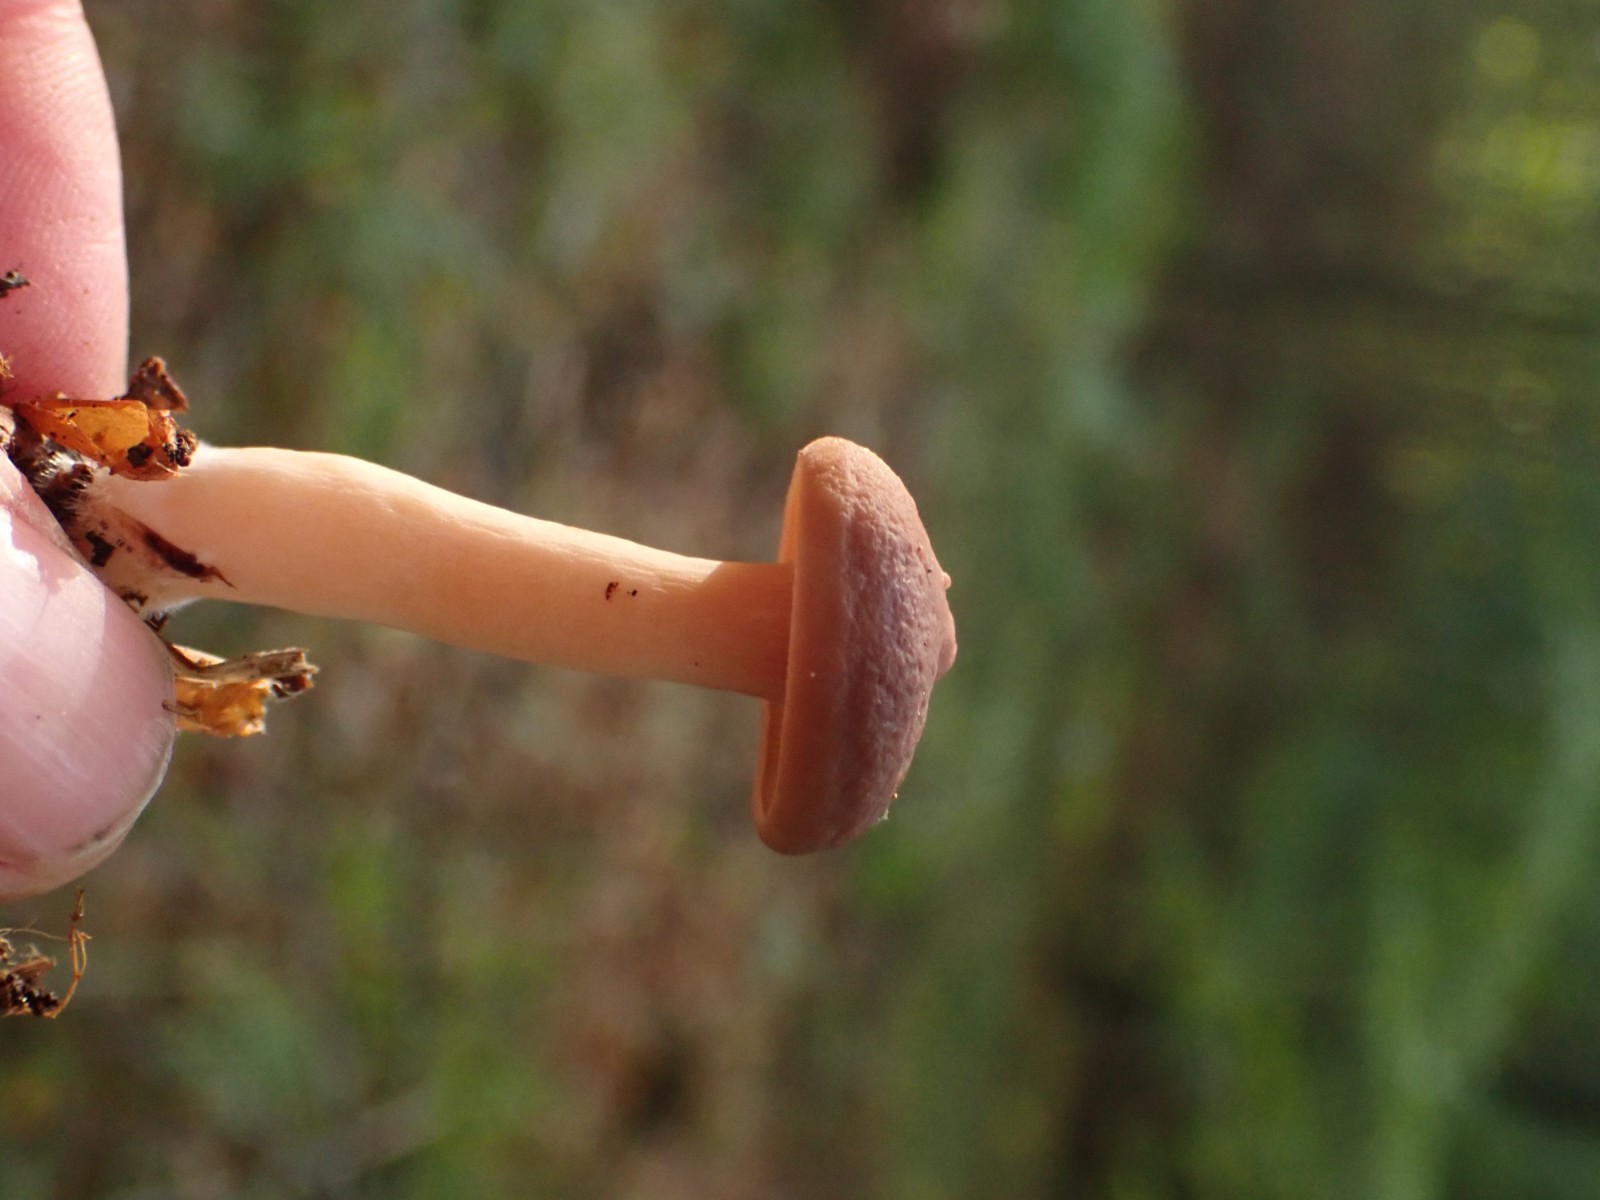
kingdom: Fungi
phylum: Basidiomycota
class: Agaricomycetes
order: Russulales
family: Russulaceae
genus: Lactarius
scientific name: Lactarius subdulcis
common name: sødlig mælkehat
